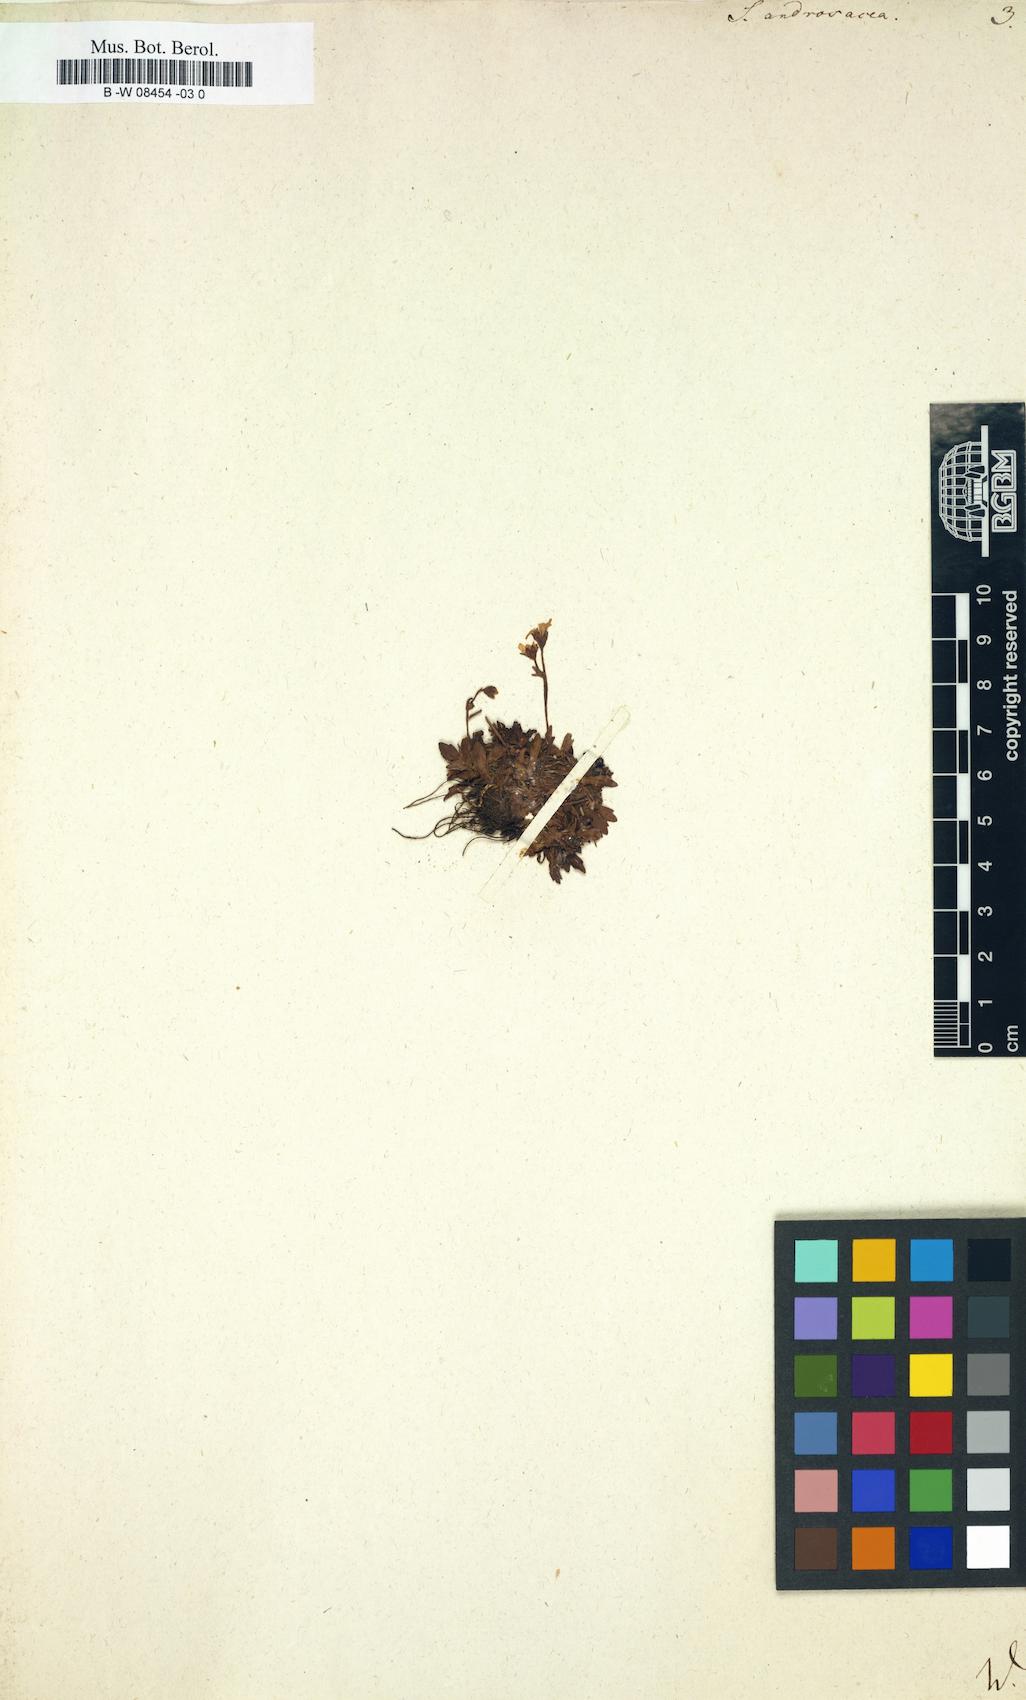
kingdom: Plantae
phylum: Tracheophyta
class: Magnoliopsida
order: Saxifragales
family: Saxifragaceae
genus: Saxifraga
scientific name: Saxifraga androsacea
